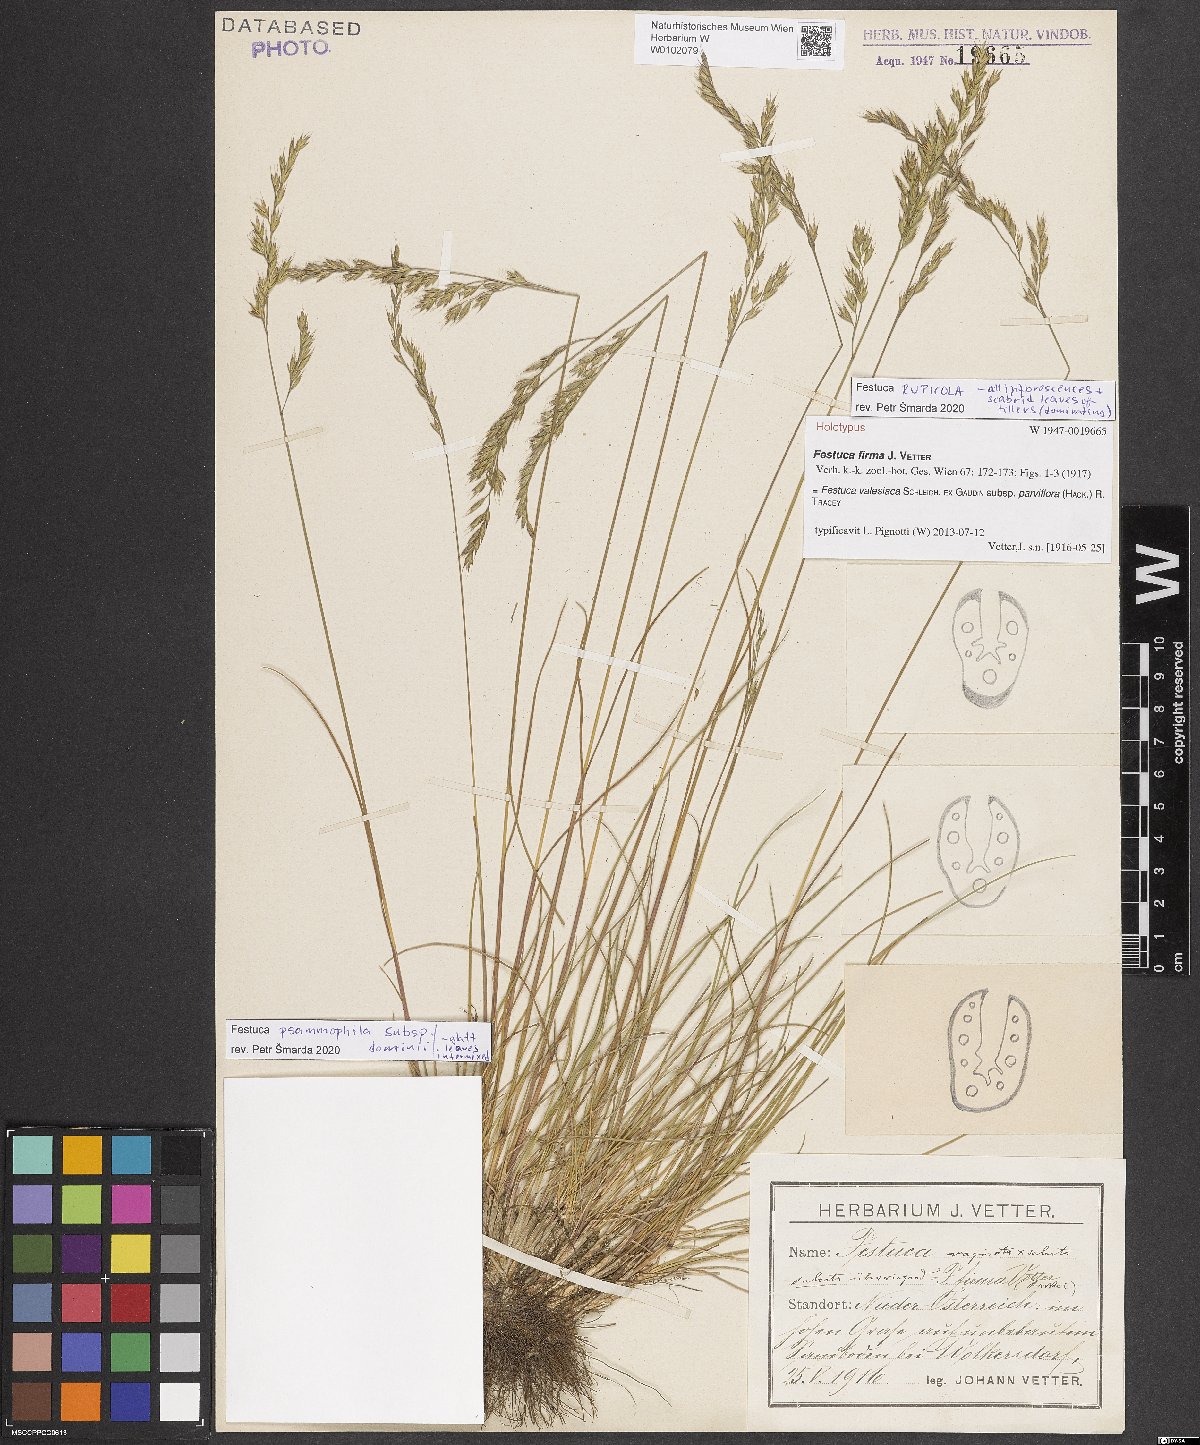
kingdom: Plantae
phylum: Tracheophyta
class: Magnoliopsida
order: Caryophyllales
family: Caryophyllaceae
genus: Dianthus
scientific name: Dianthus seguieri
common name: Ragged pink
